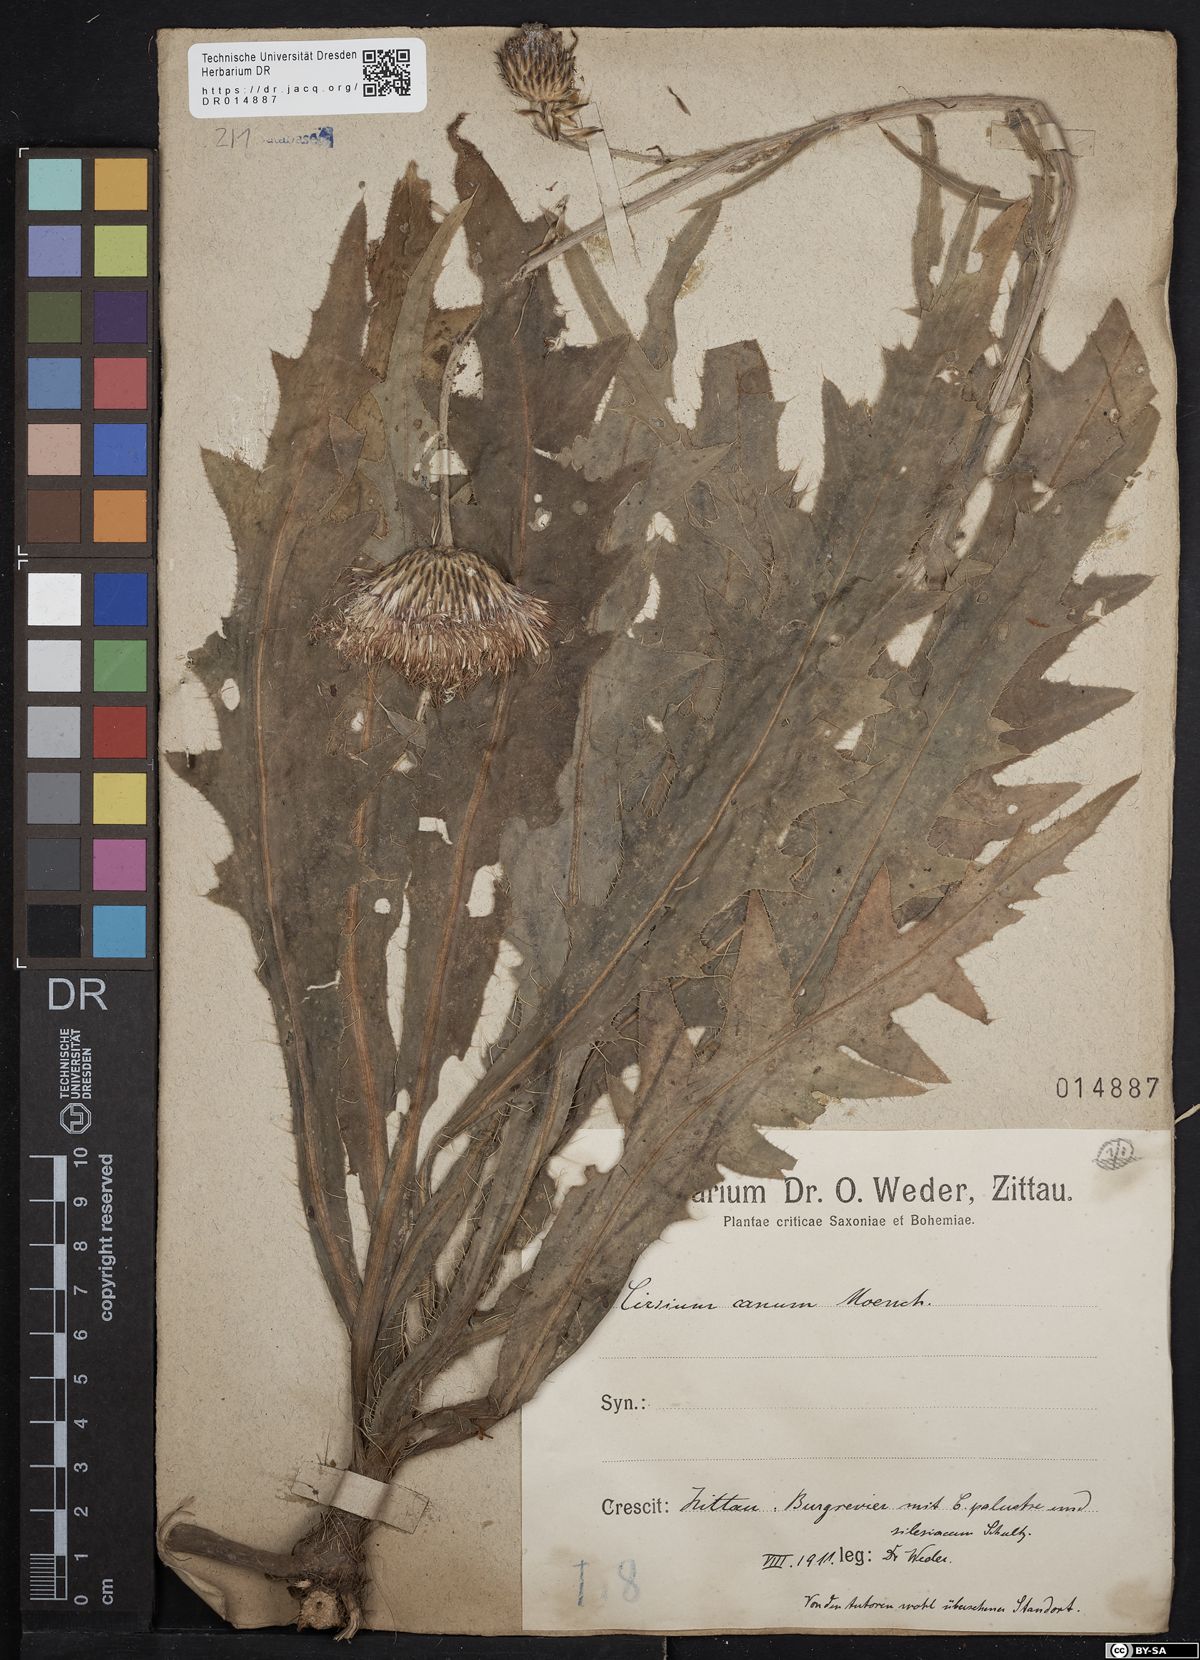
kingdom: Plantae
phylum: Tracheophyta
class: Magnoliopsida
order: Asterales
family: Asteraceae
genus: Cirsium
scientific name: Cirsium canum
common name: Queen anne's thistle
